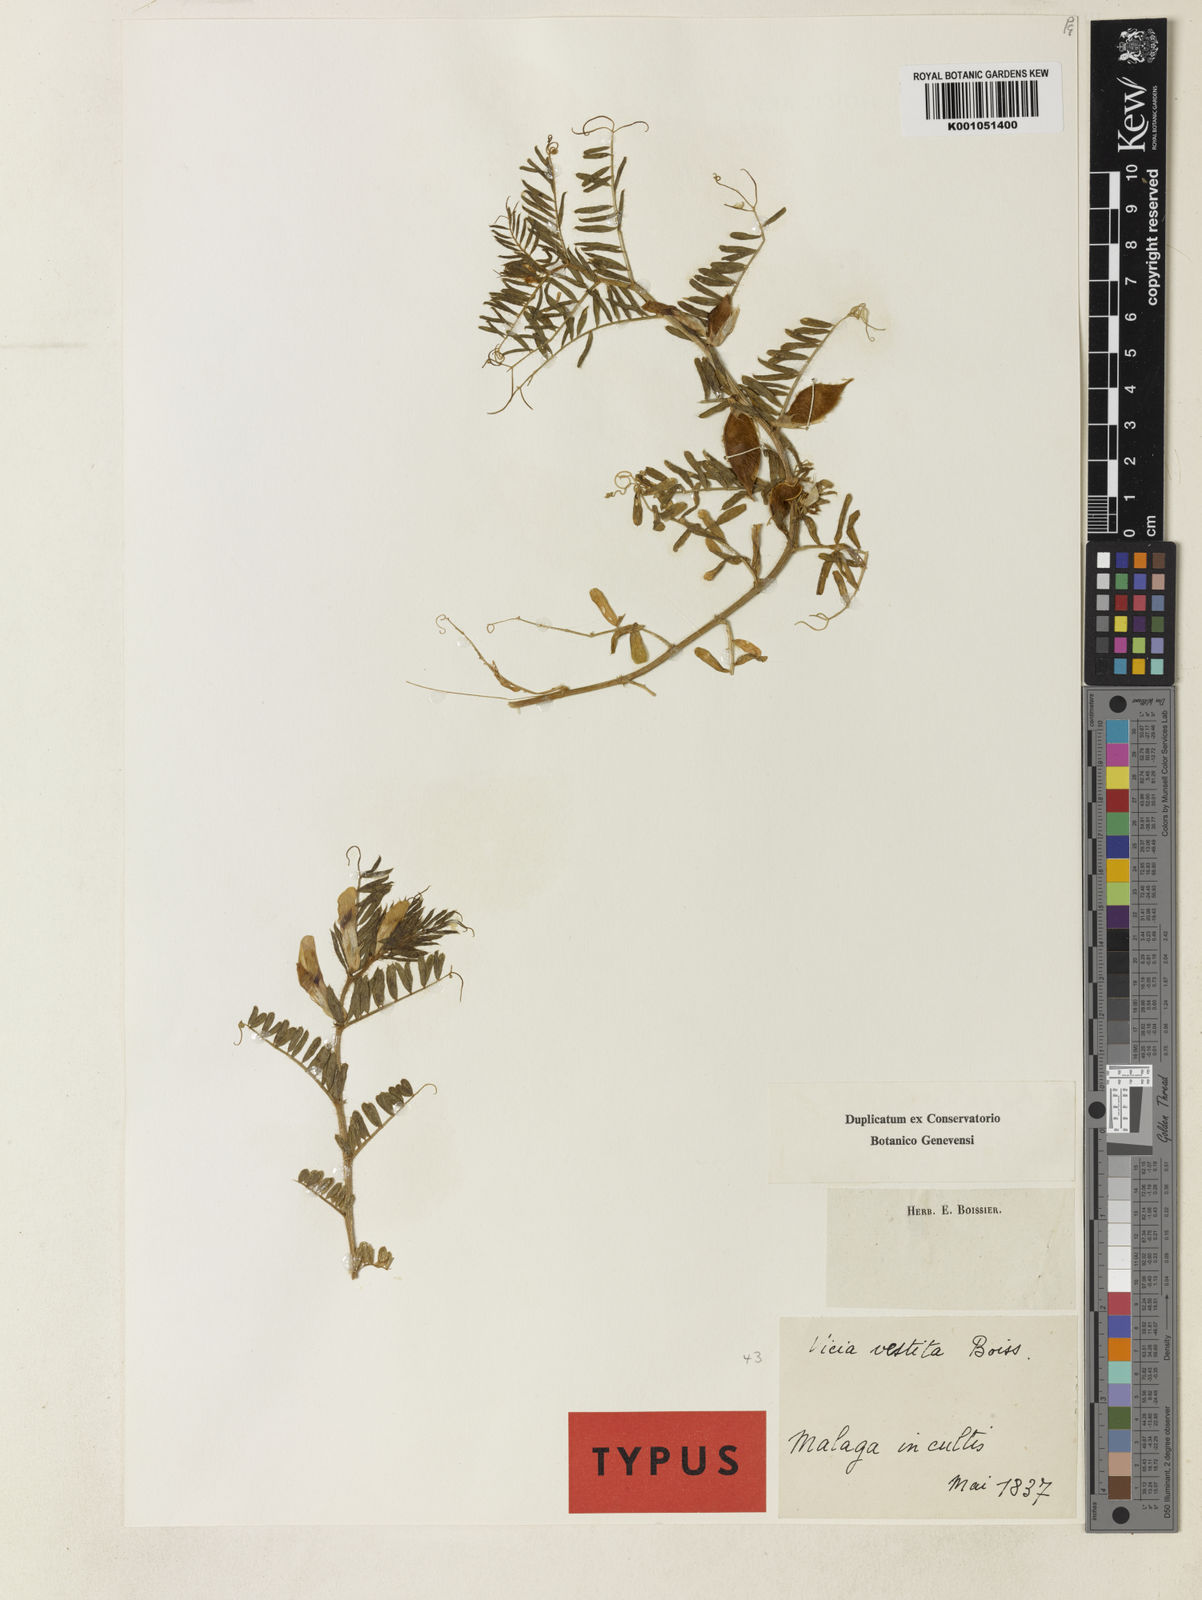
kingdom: Plantae
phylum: Tracheophyta
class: Magnoliopsida
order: Fabales
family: Fabaceae
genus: Vicia
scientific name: Vicia lutea
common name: Smooth yellow vetch
